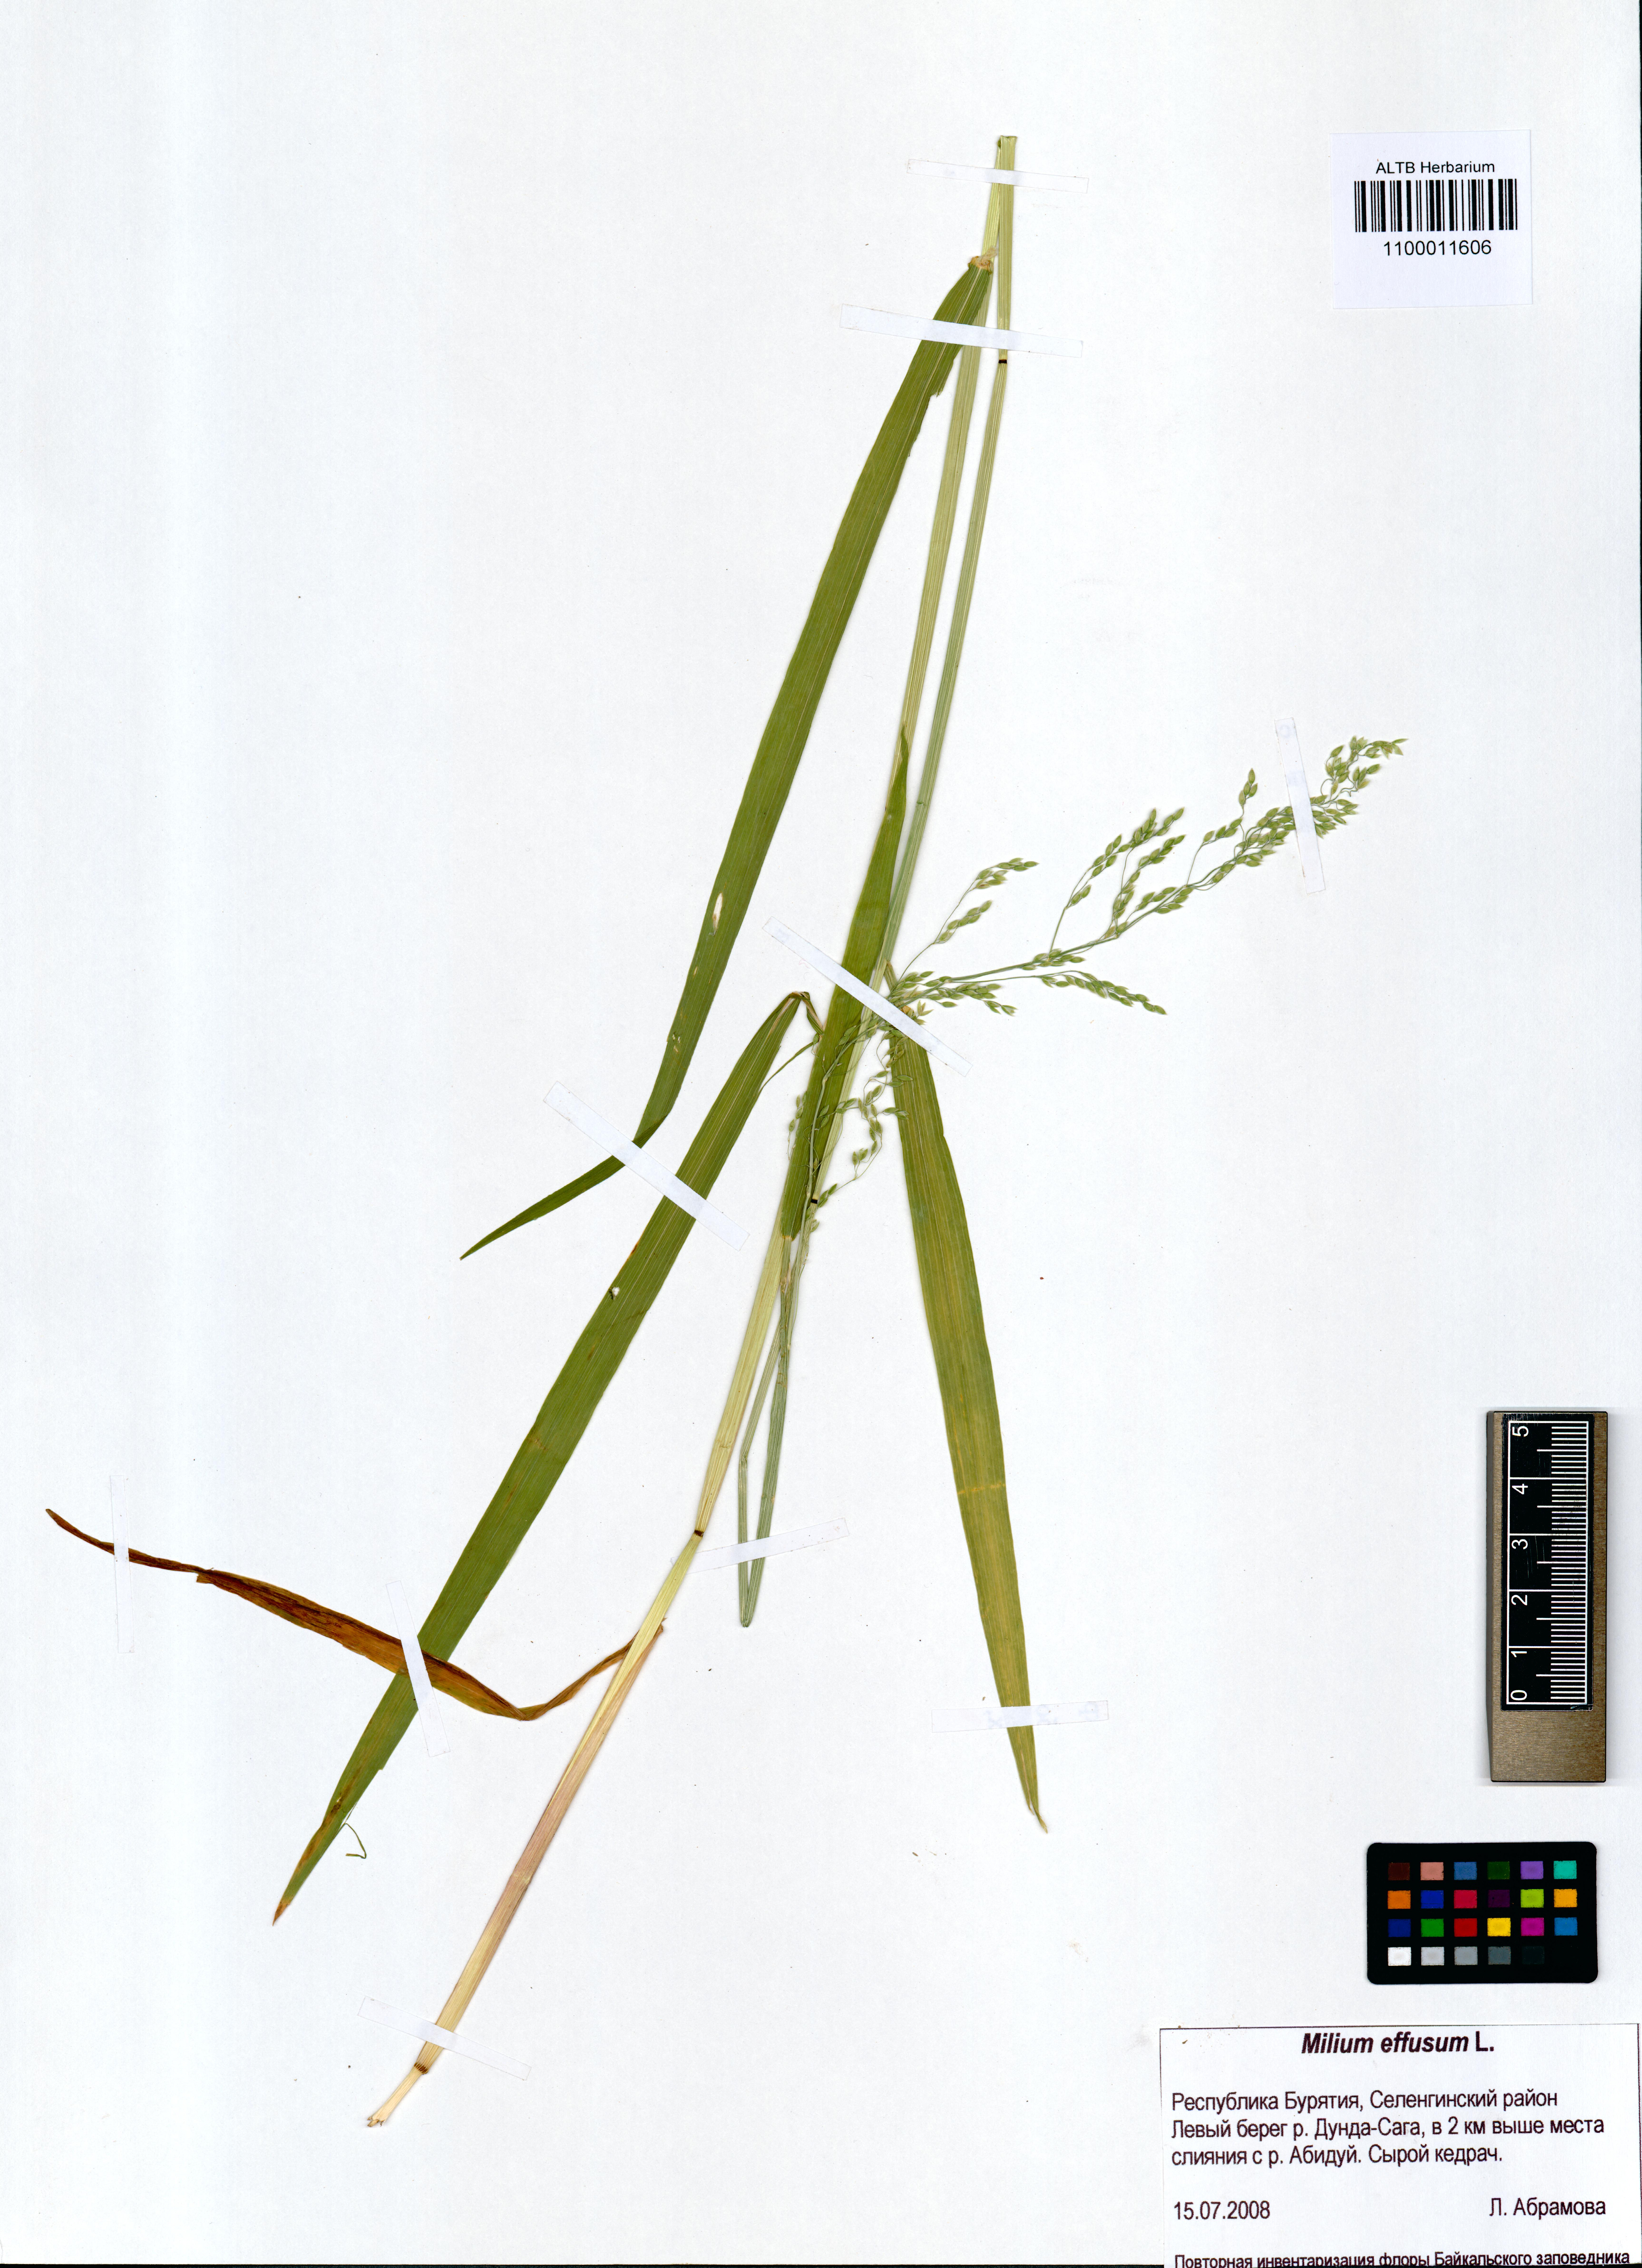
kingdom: Plantae
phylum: Tracheophyta
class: Liliopsida
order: Poales
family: Poaceae
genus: Milium
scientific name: Milium effusum
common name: Wood millet
